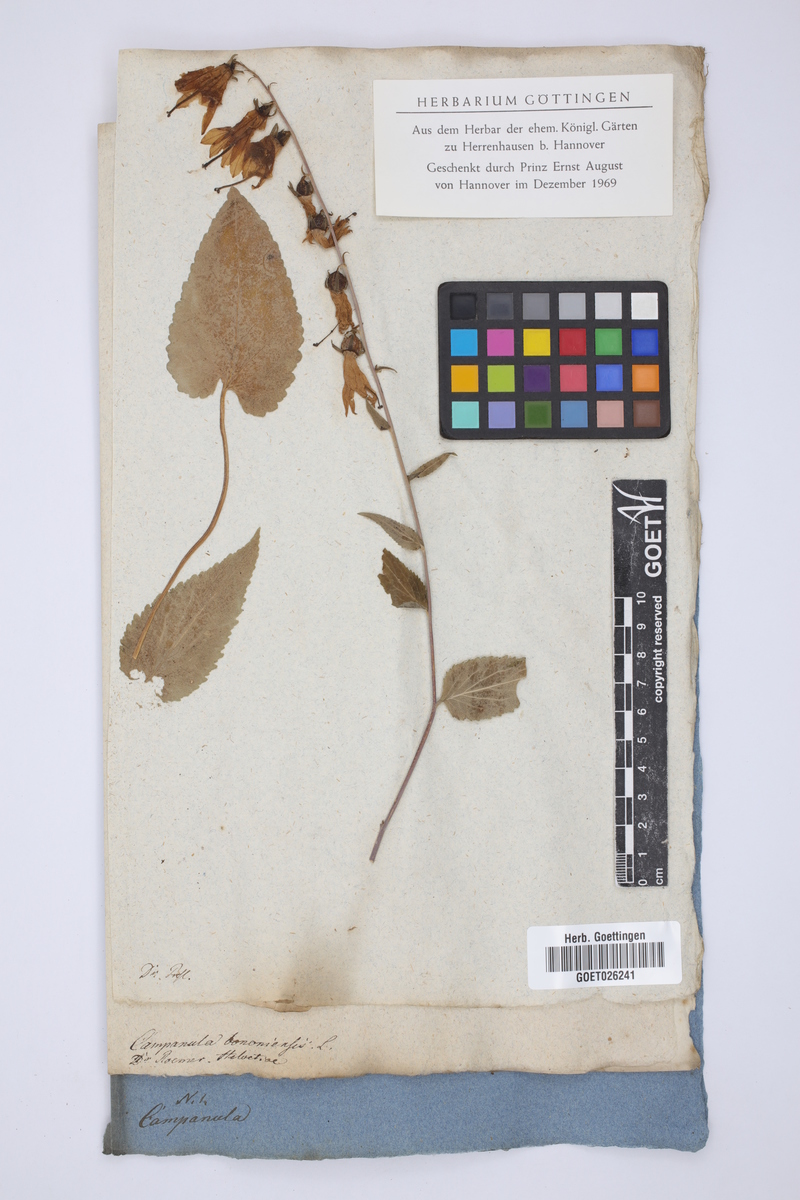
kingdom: Plantae
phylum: Tracheophyta
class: Magnoliopsida
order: Asterales
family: Campanulaceae
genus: Campanula
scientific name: Campanula bononiensis
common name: Pale bellflower
